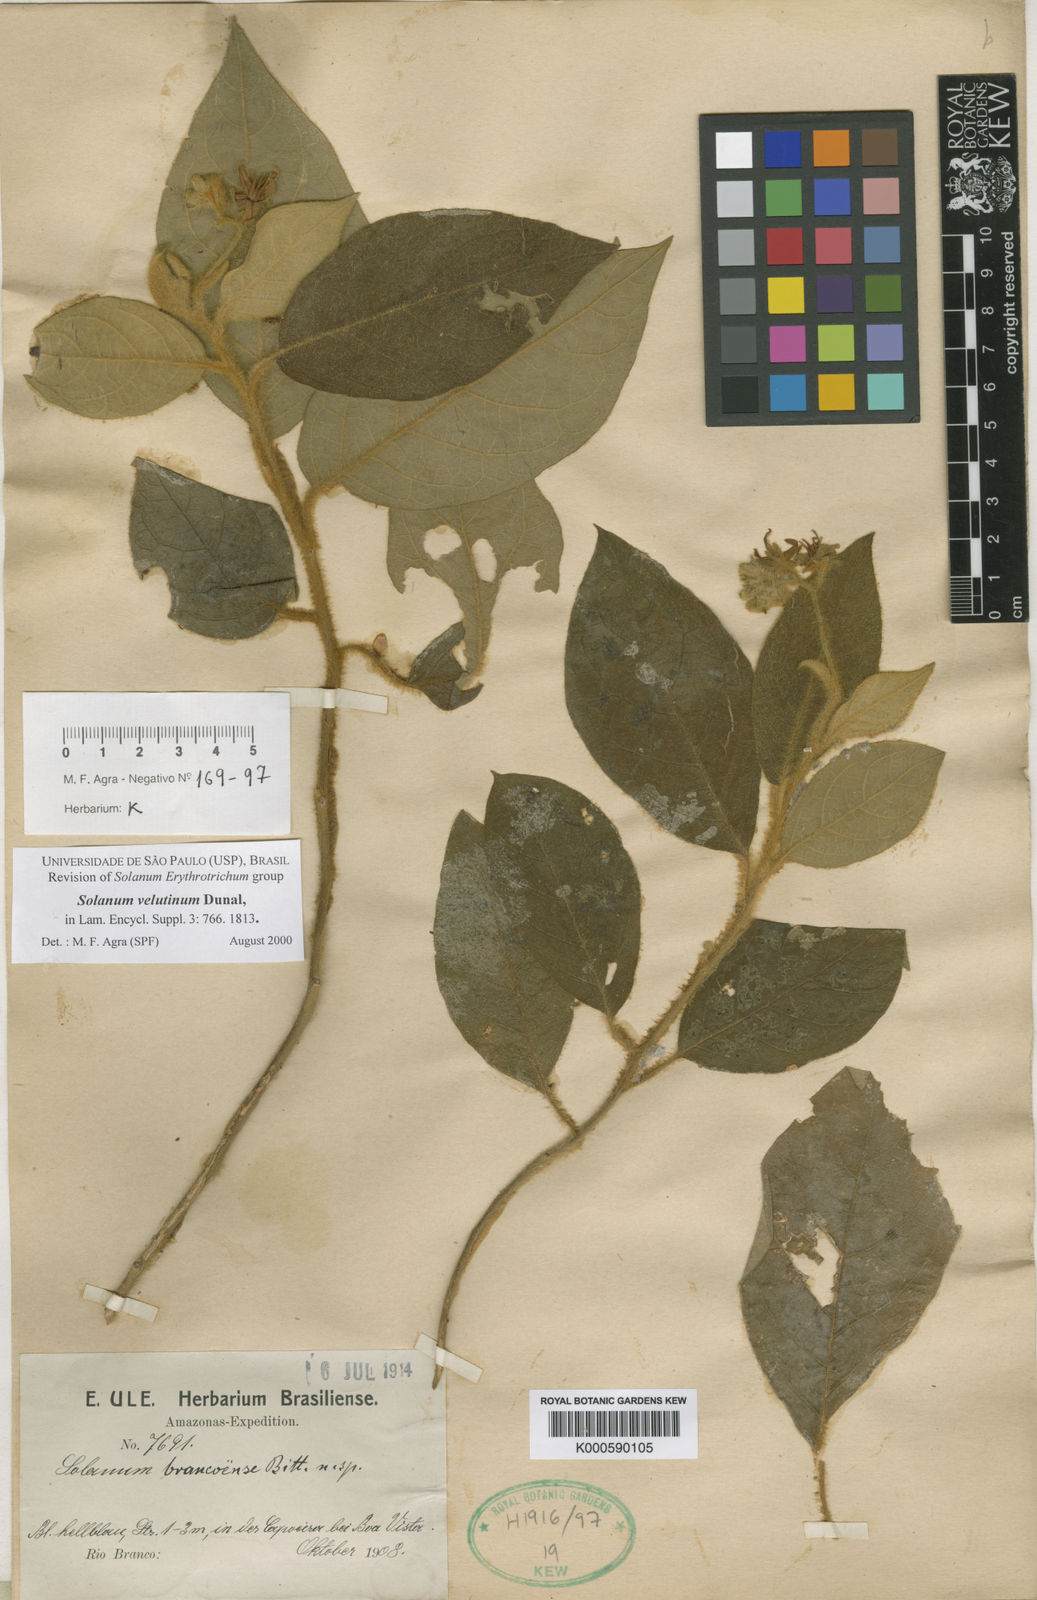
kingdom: Plantae
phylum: Tracheophyta
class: Magnoliopsida
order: Solanales
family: Solanaceae
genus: Solanum
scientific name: Solanum velutinum
